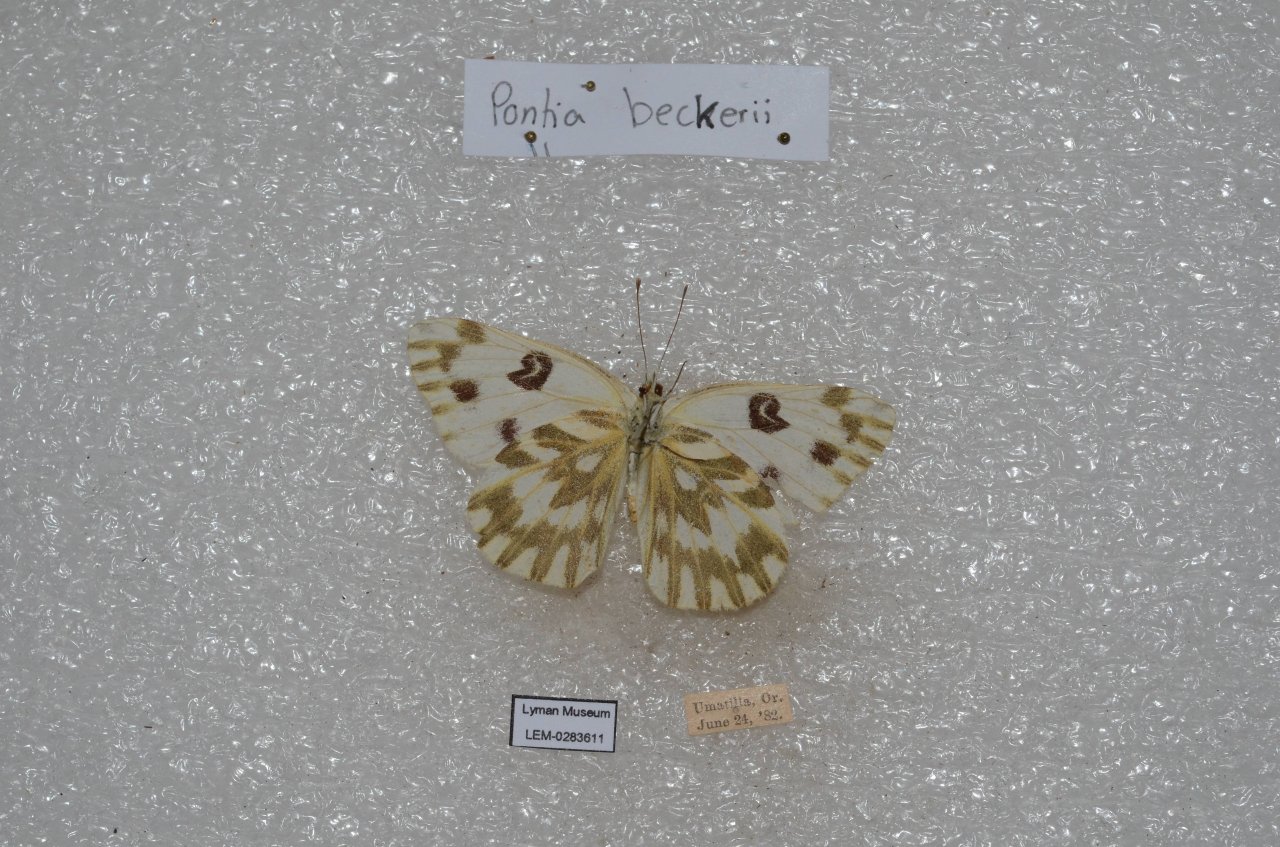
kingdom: Animalia
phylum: Arthropoda
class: Insecta
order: Lepidoptera
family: Pieridae
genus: Pontia
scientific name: Pontia beckerii
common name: Becker's White
